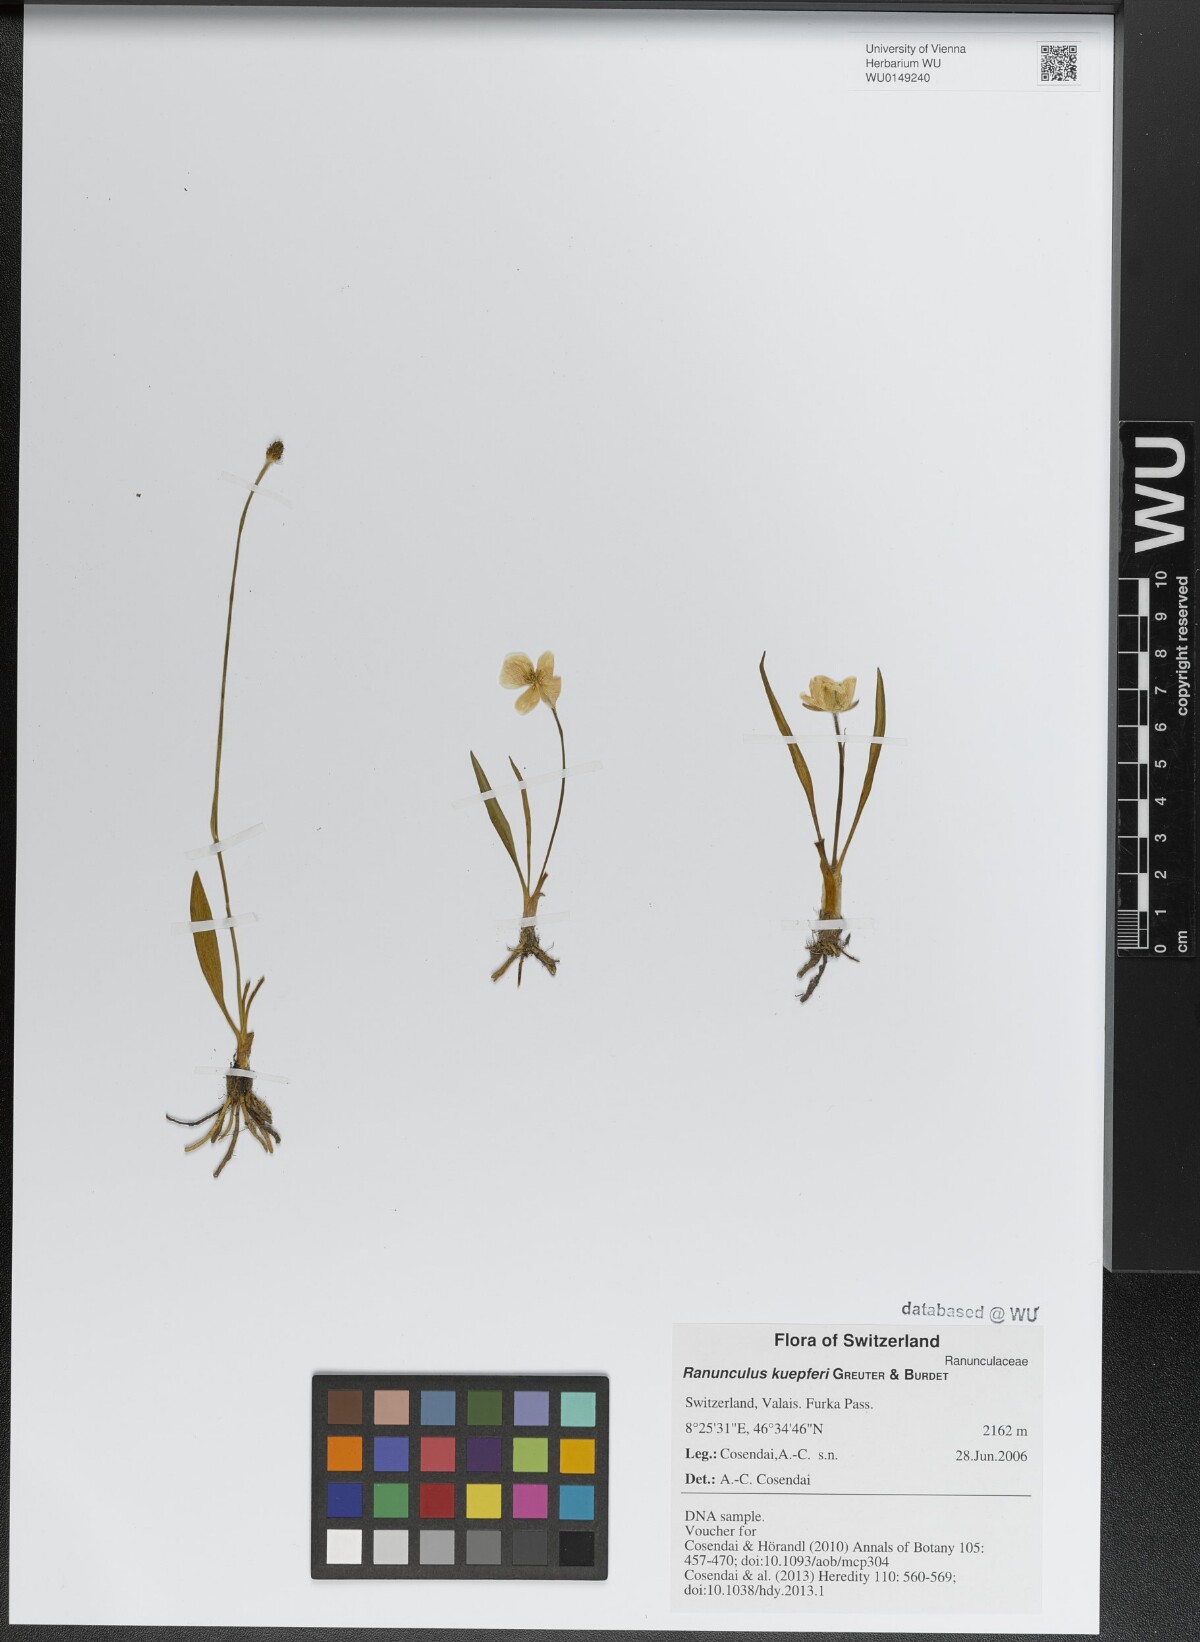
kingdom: Plantae
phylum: Tracheophyta
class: Magnoliopsida
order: Ranunculales
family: Ranunculaceae
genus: Ranunculus
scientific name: Ranunculus kuepferi
